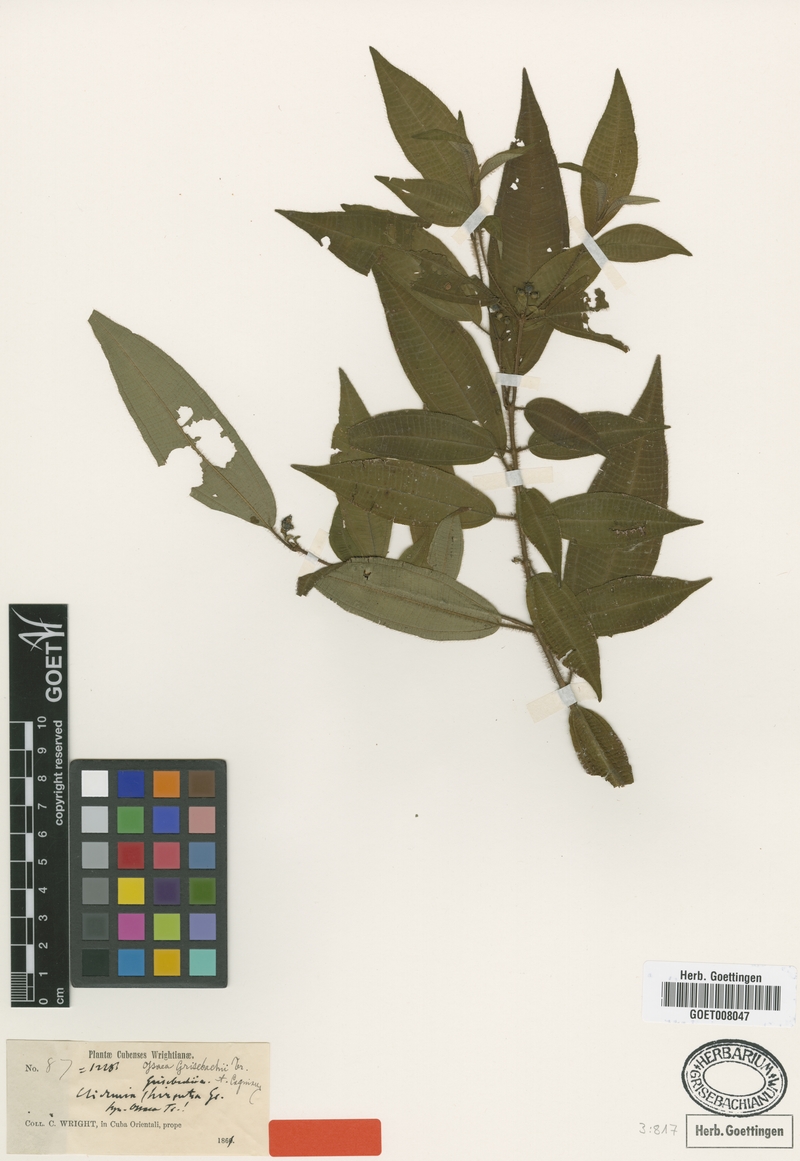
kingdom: Plantae
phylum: Tracheophyta
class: Magnoliopsida
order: Myrtales
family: Melastomataceae
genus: Miconia
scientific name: Miconia capillinervis
